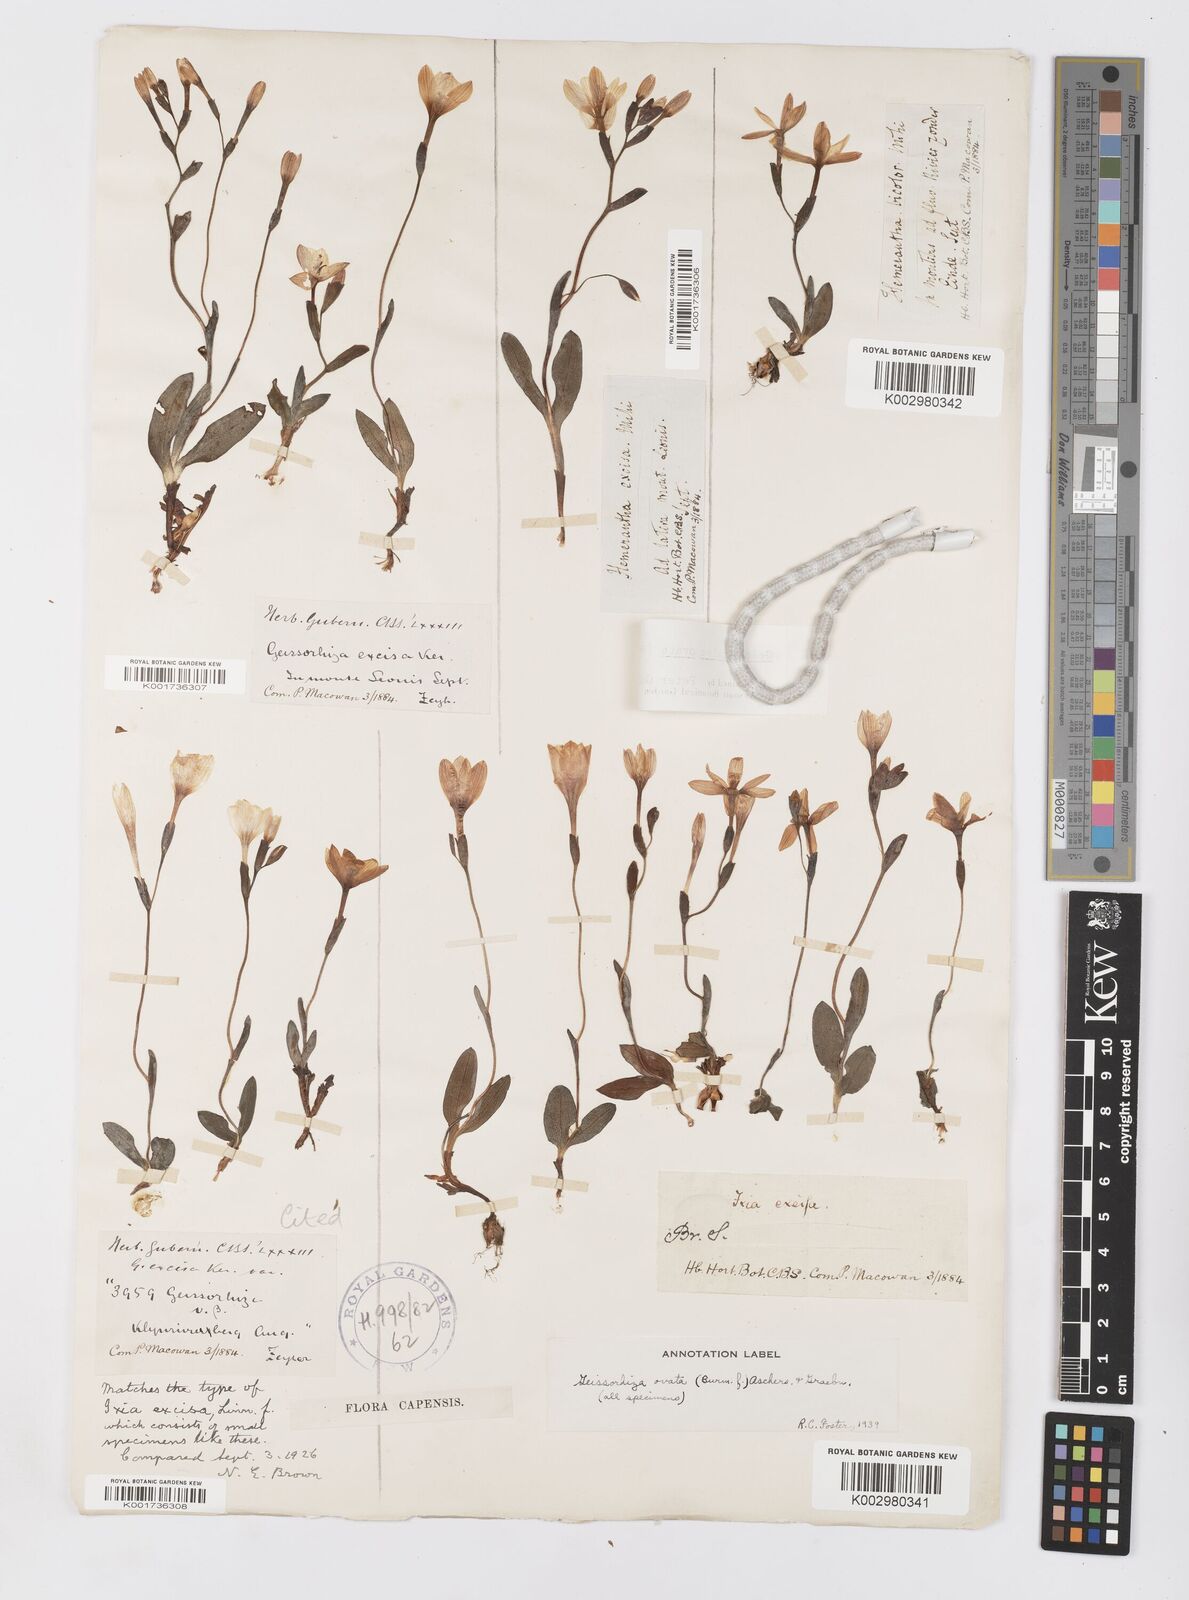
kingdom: Plantae
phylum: Tracheophyta
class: Liliopsida
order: Asparagales
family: Iridaceae
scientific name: Iridaceae
